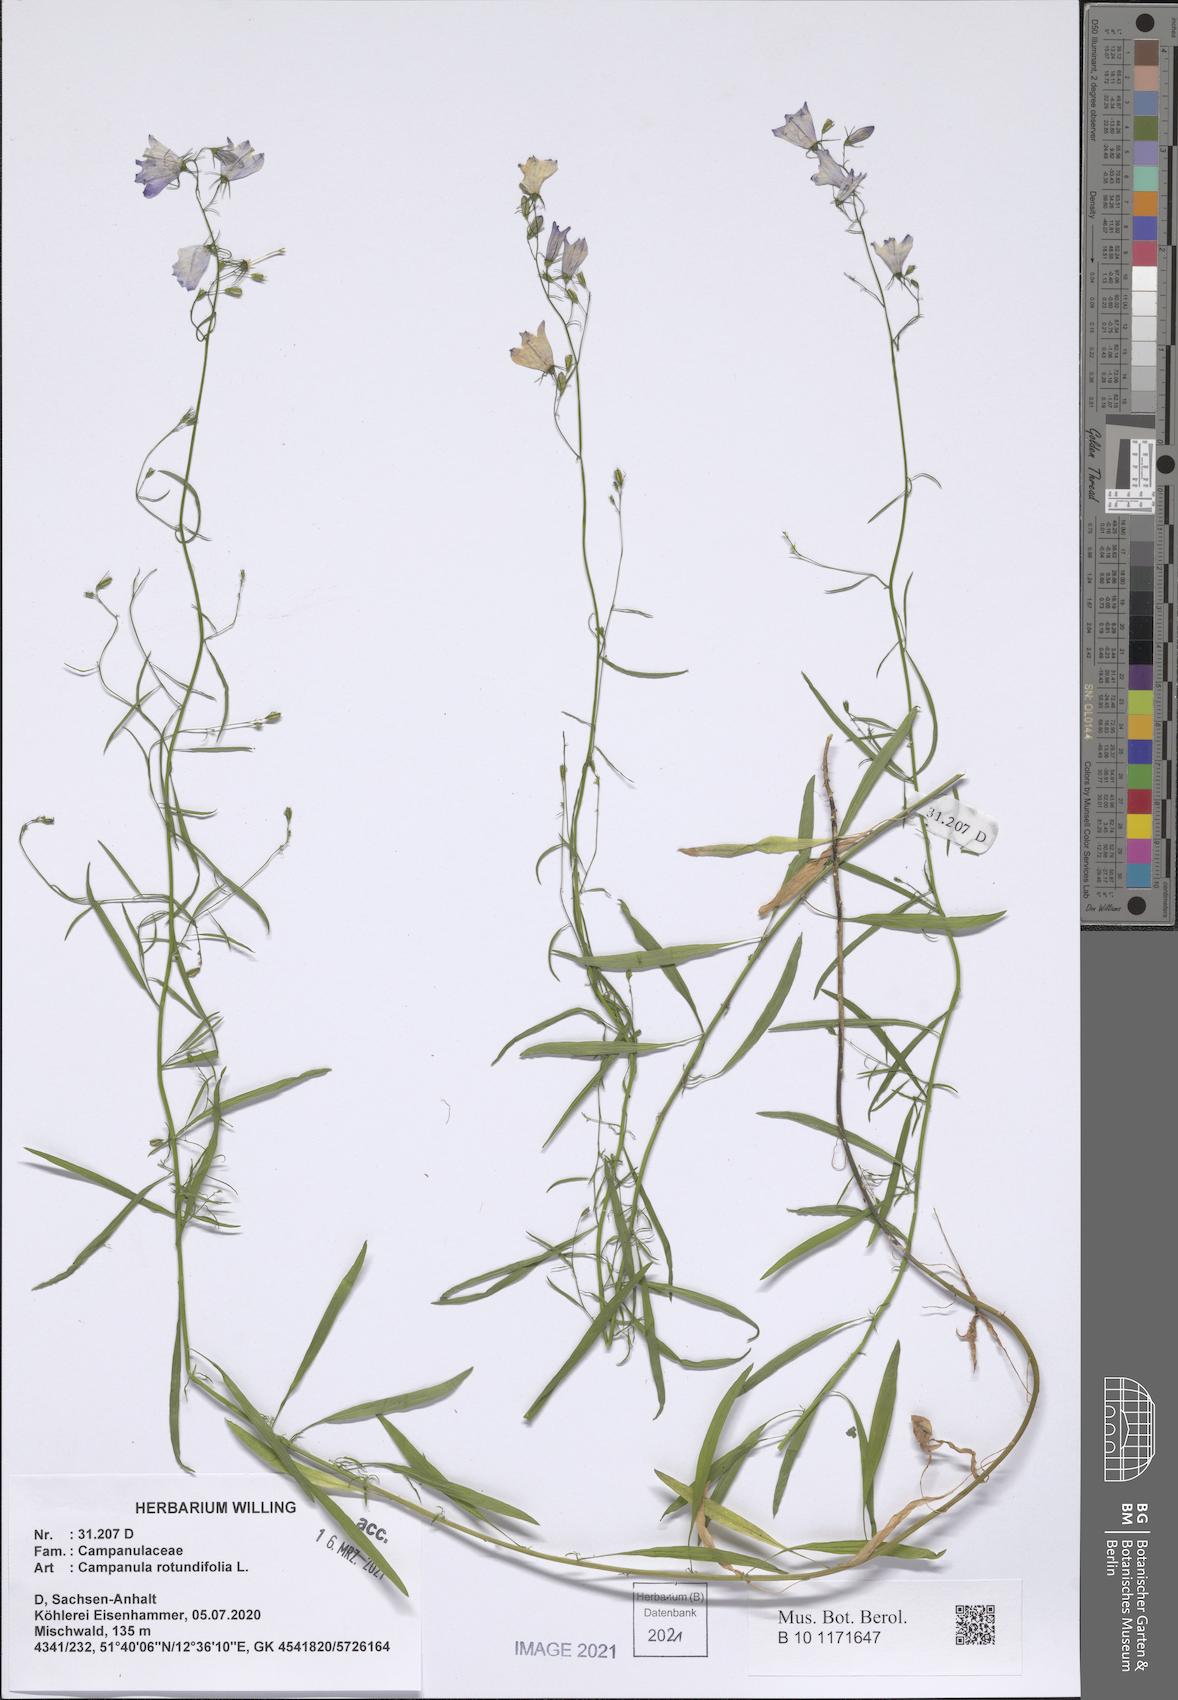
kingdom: Plantae
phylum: Tracheophyta
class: Magnoliopsida
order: Asterales
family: Campanulaceae
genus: Campanula
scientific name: Campanula rotundifolia
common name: Harebell
